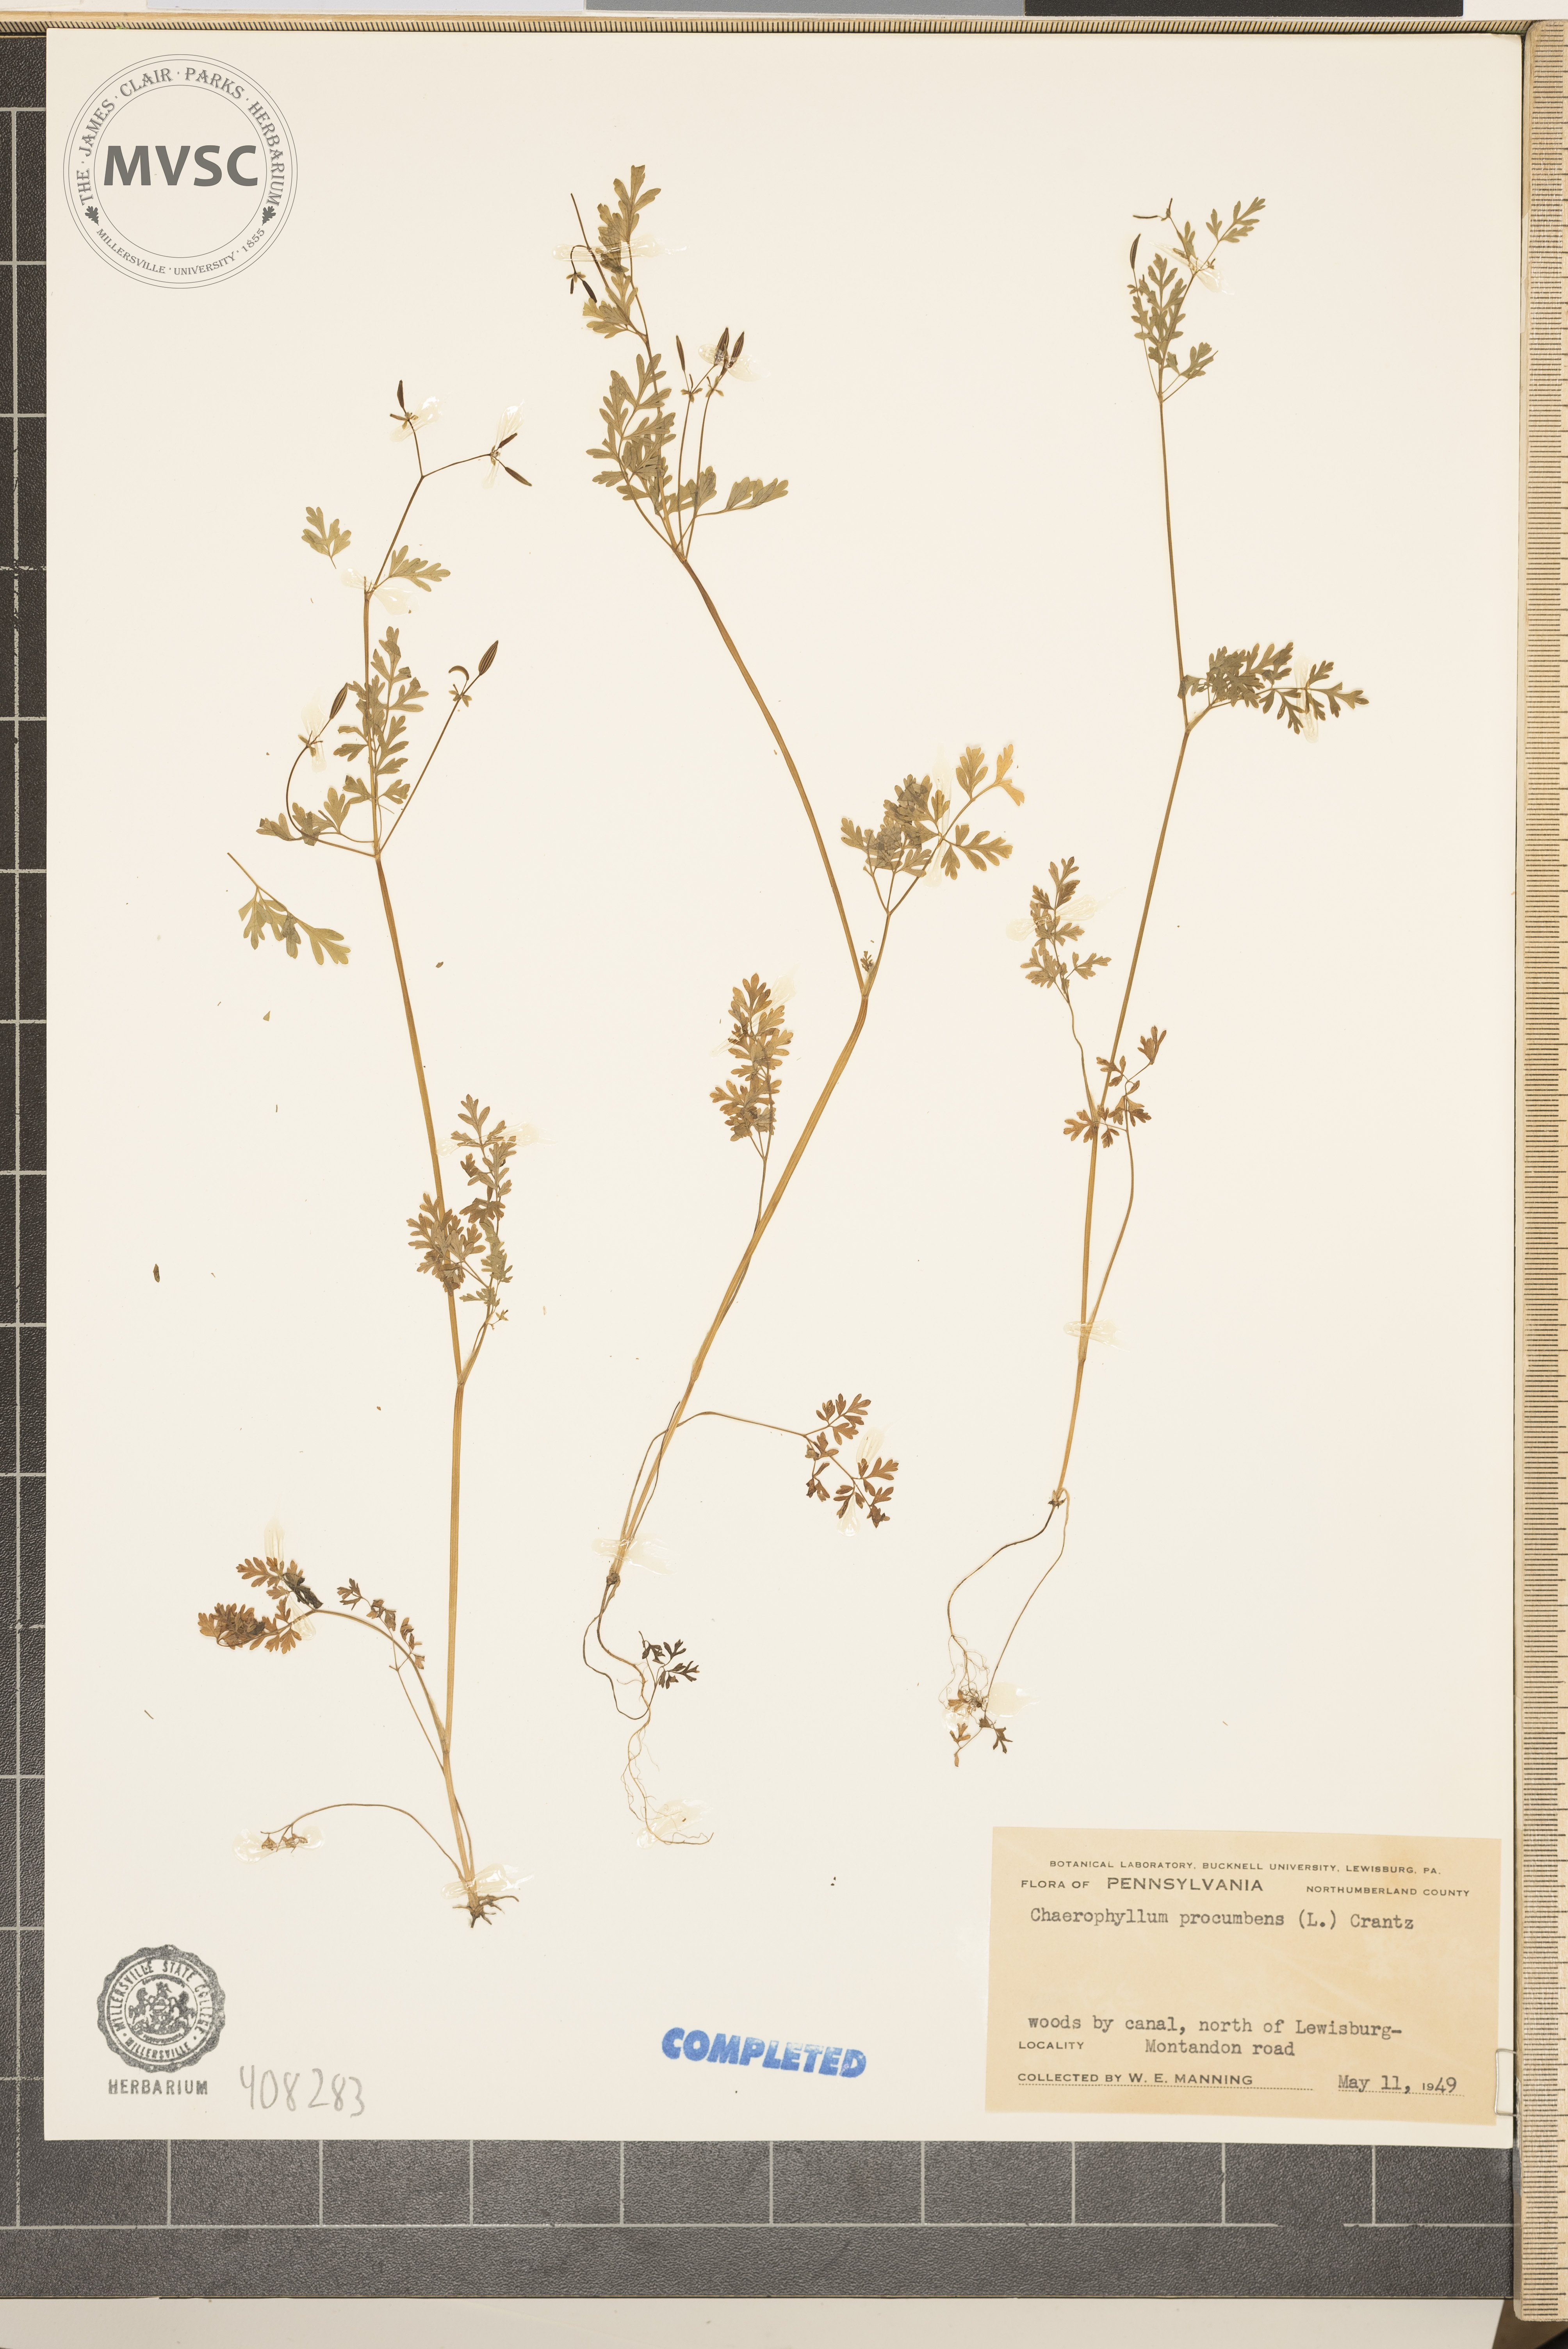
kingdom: Plantae
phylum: Tracheophyta
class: Magnoliopsida
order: Apiales
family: Apiaceae
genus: Chaerophyllum
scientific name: Chaerophyllum procumbens
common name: Spreading chervil
